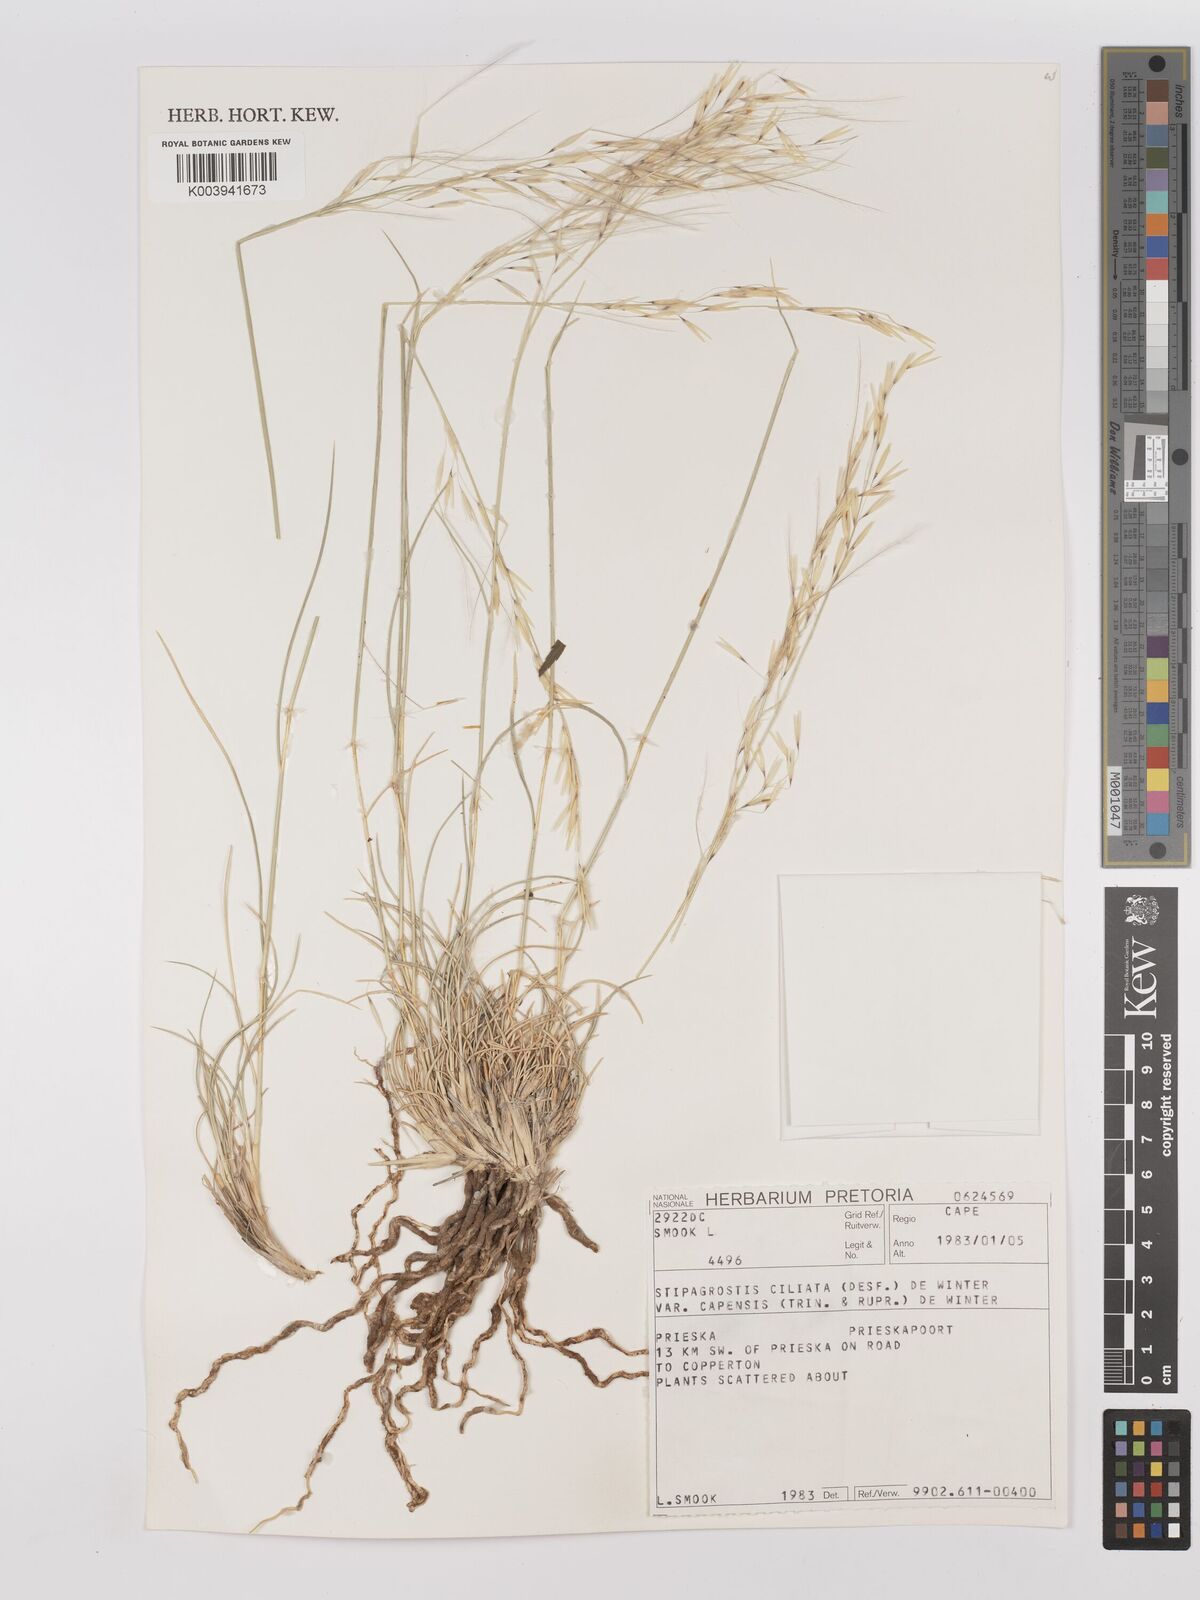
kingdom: Plantae
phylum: Tracheophyta
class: Liliopsida
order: Poales
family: Poaceae
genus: Stipagrostis
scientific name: Stipagrostis ciliata
